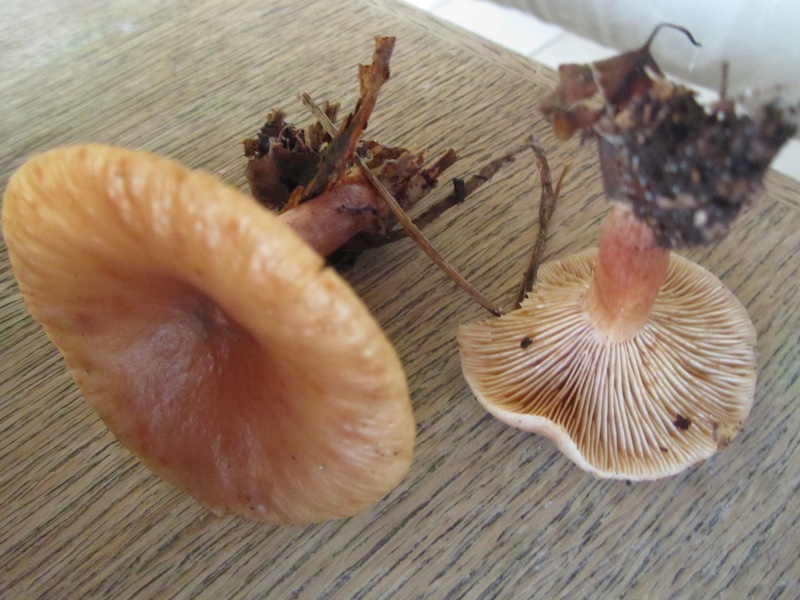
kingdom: Fungi
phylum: Basidiomycota
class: Agaricomycetes
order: Russulales
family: Russulaceae
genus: Lactarius
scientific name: Lactarius lacunarum
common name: sump-mælkehat
